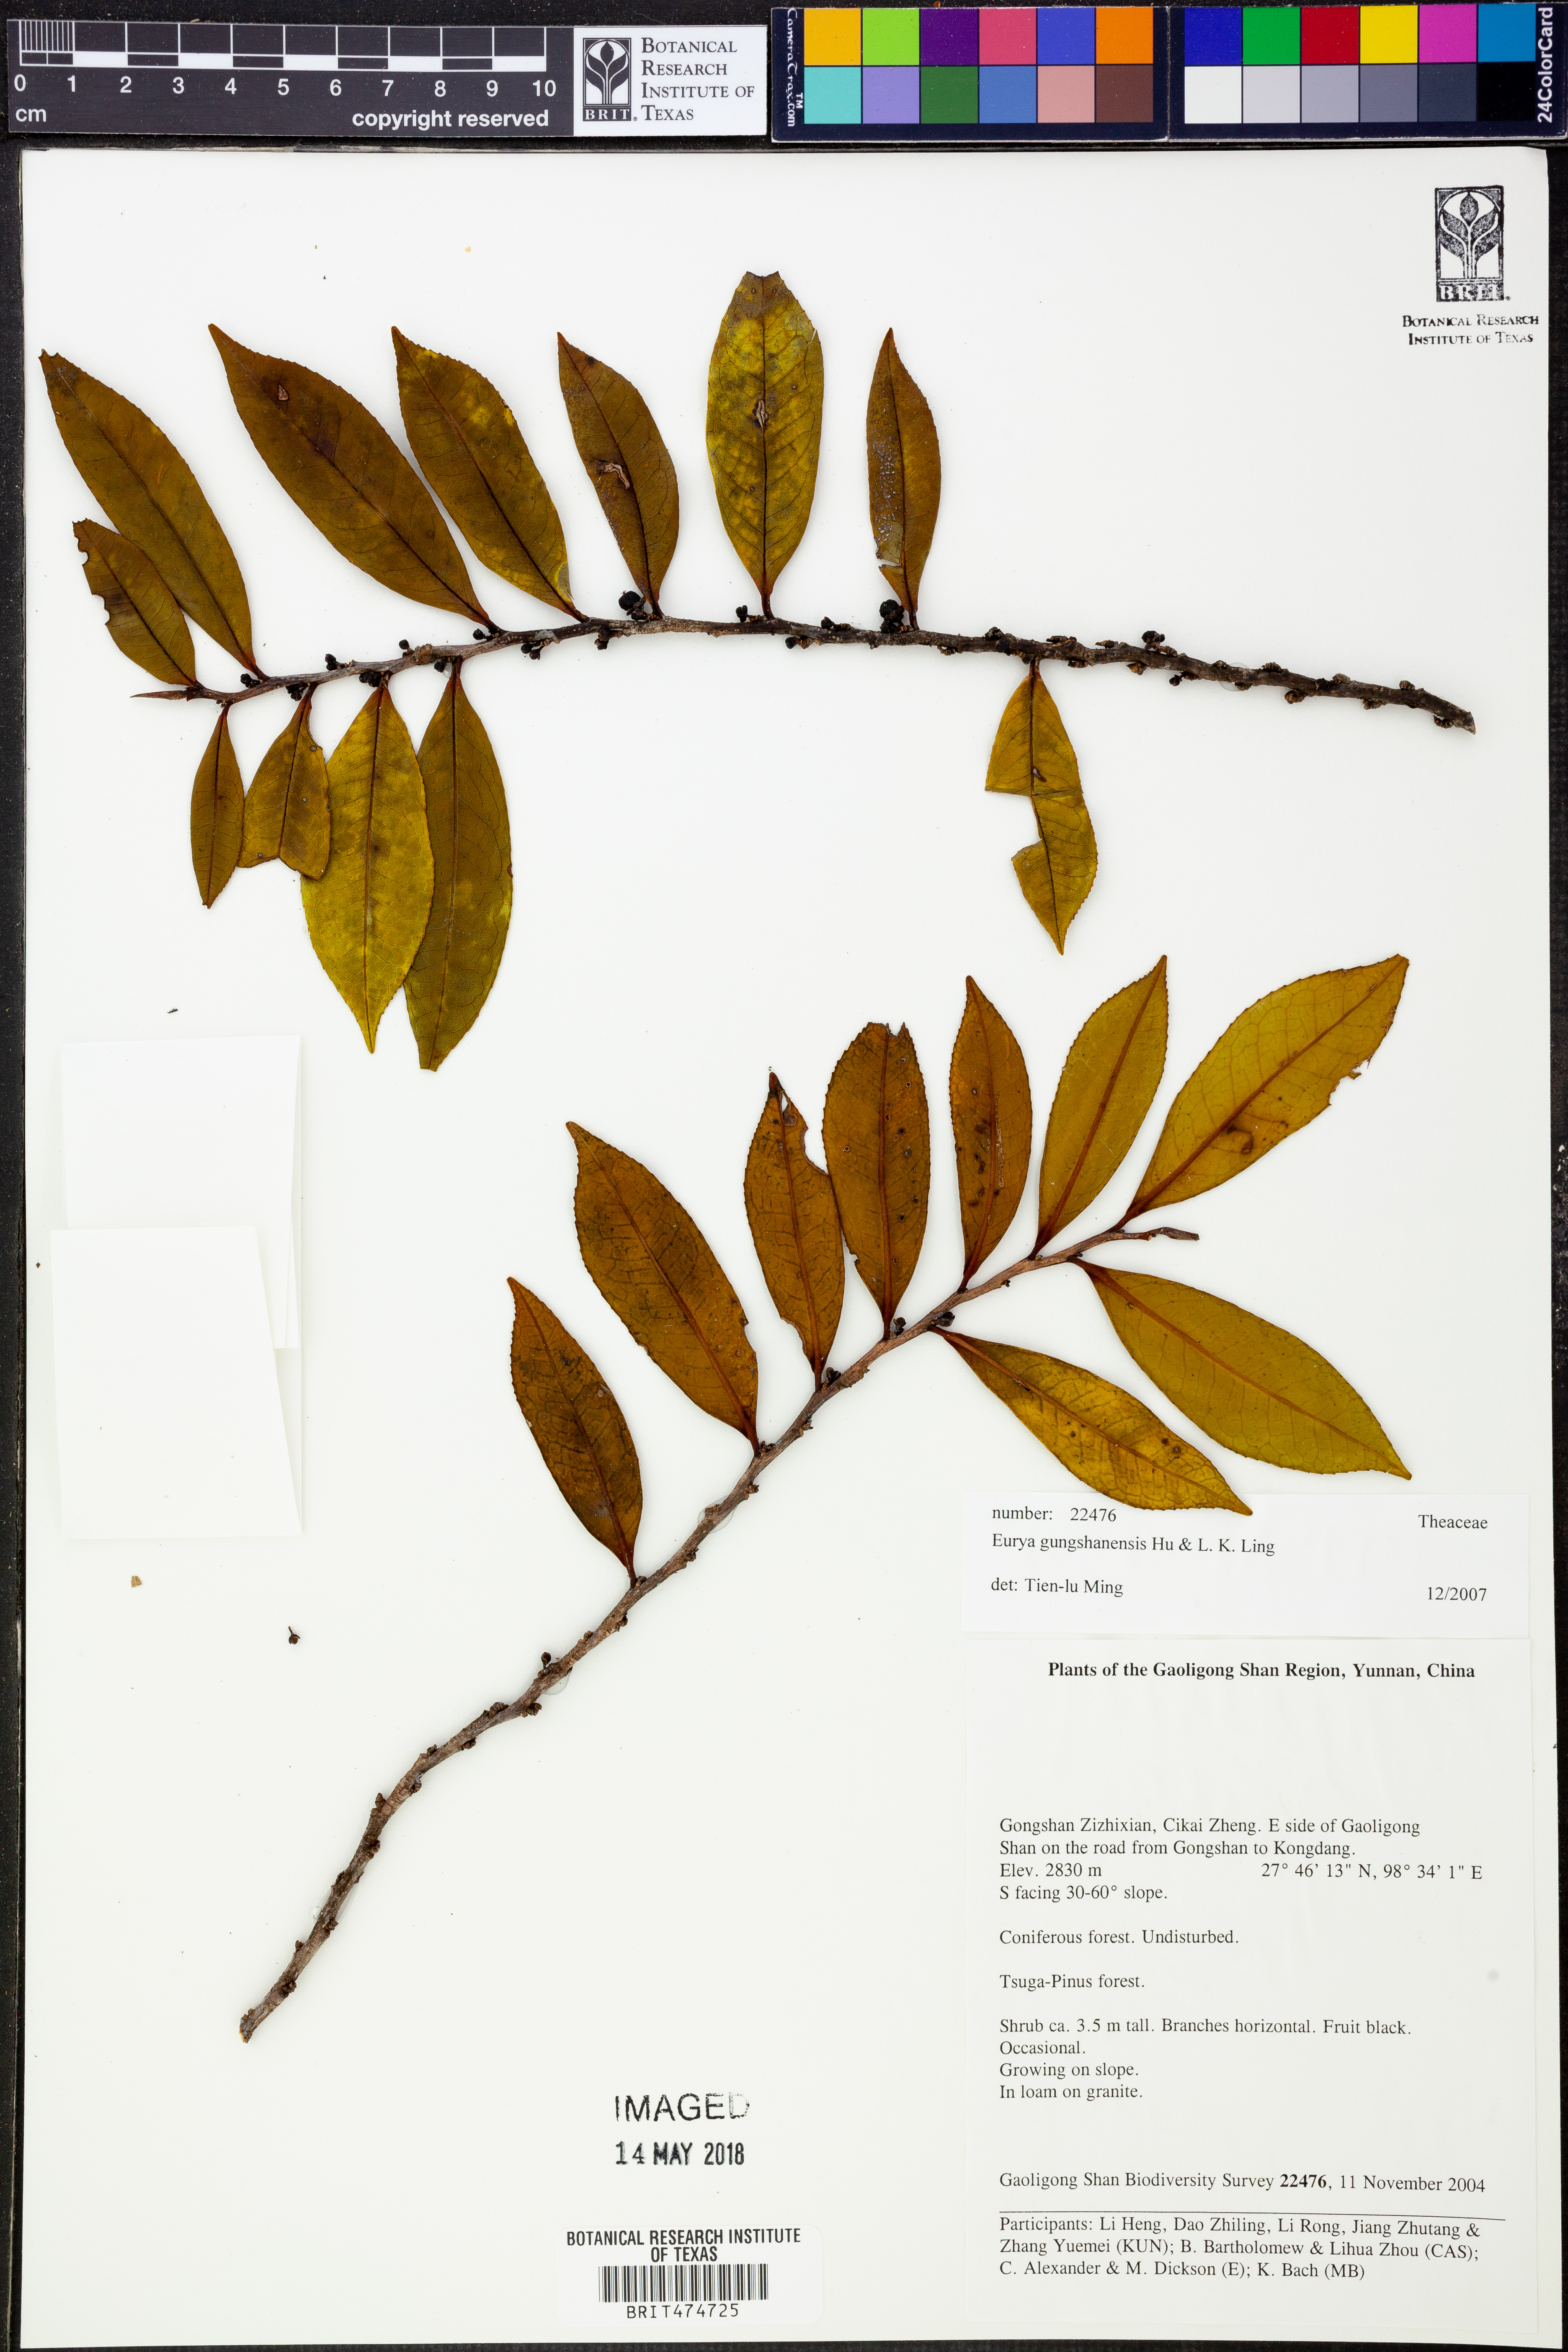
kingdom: Plantae
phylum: Tracheophyta
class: Magnoliopsida
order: Ericales
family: Pentaphylacaceae
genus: Eurya
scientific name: Eurya gungshanensis
